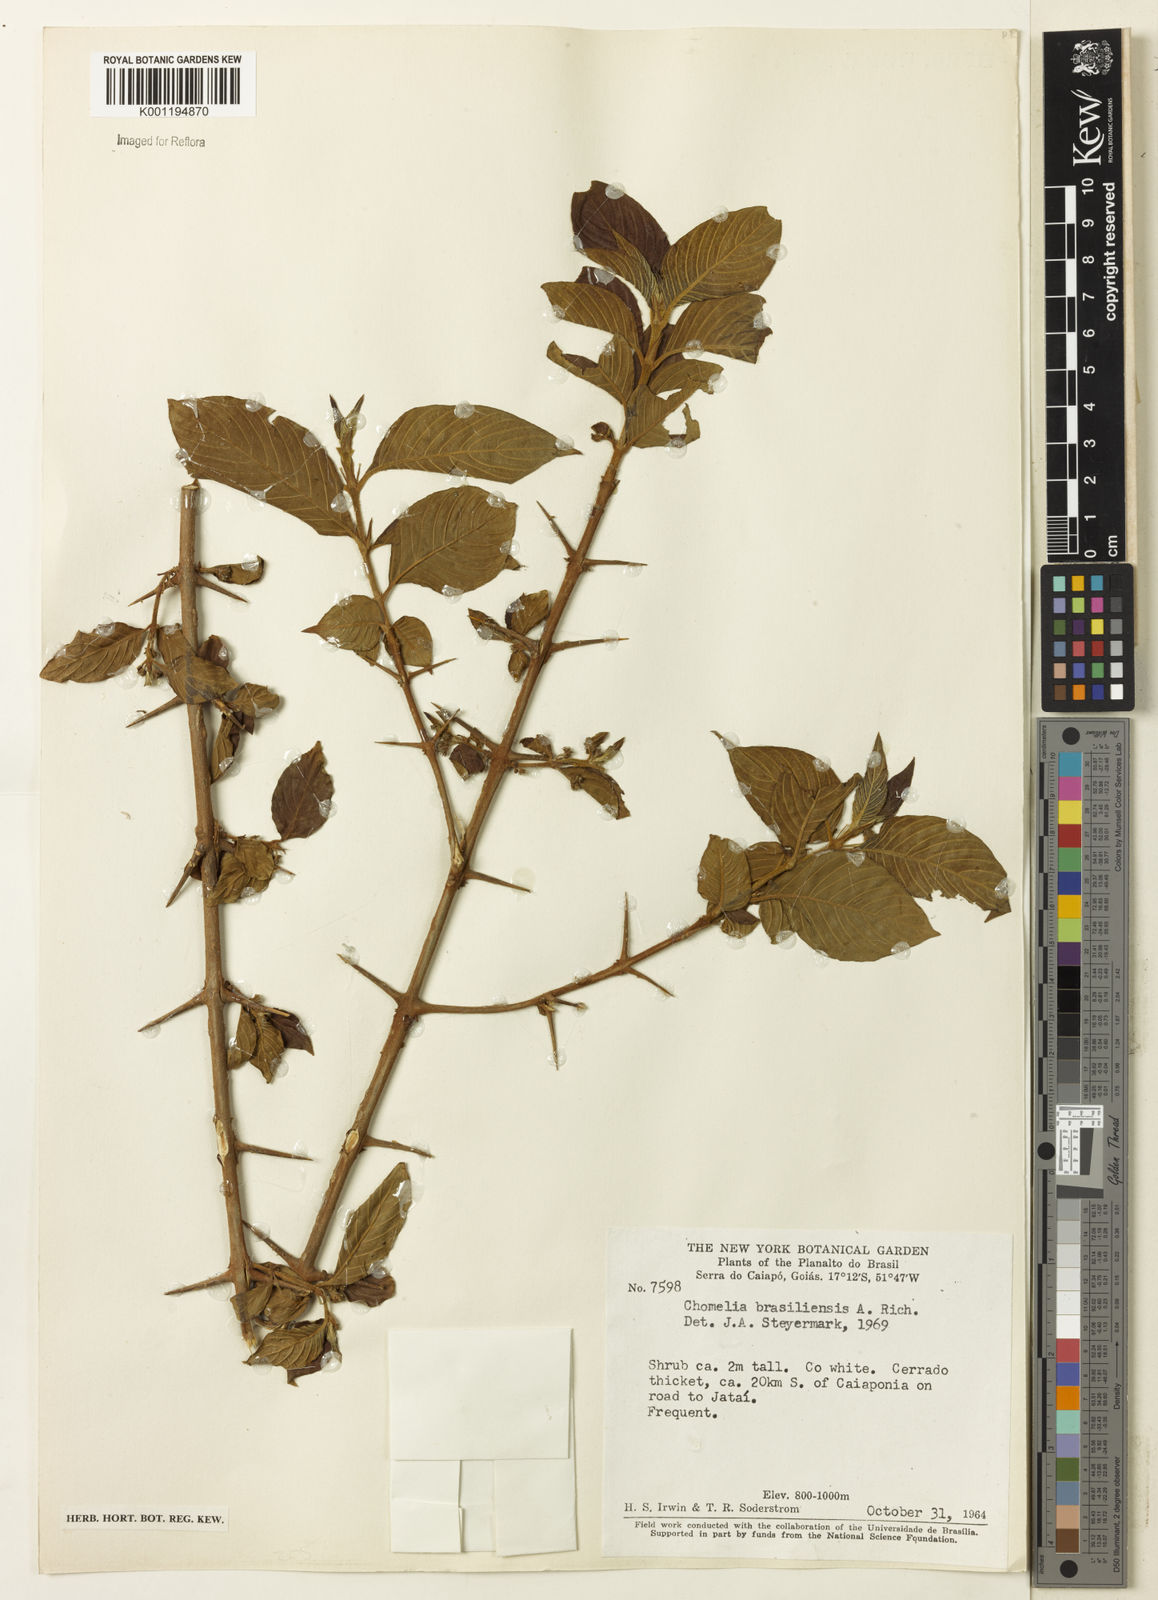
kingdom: Plantae
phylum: Tracheophyta
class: Magnoliopsida
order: Gentianales
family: Rubiaceae
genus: Chomelia
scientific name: Chomelia
